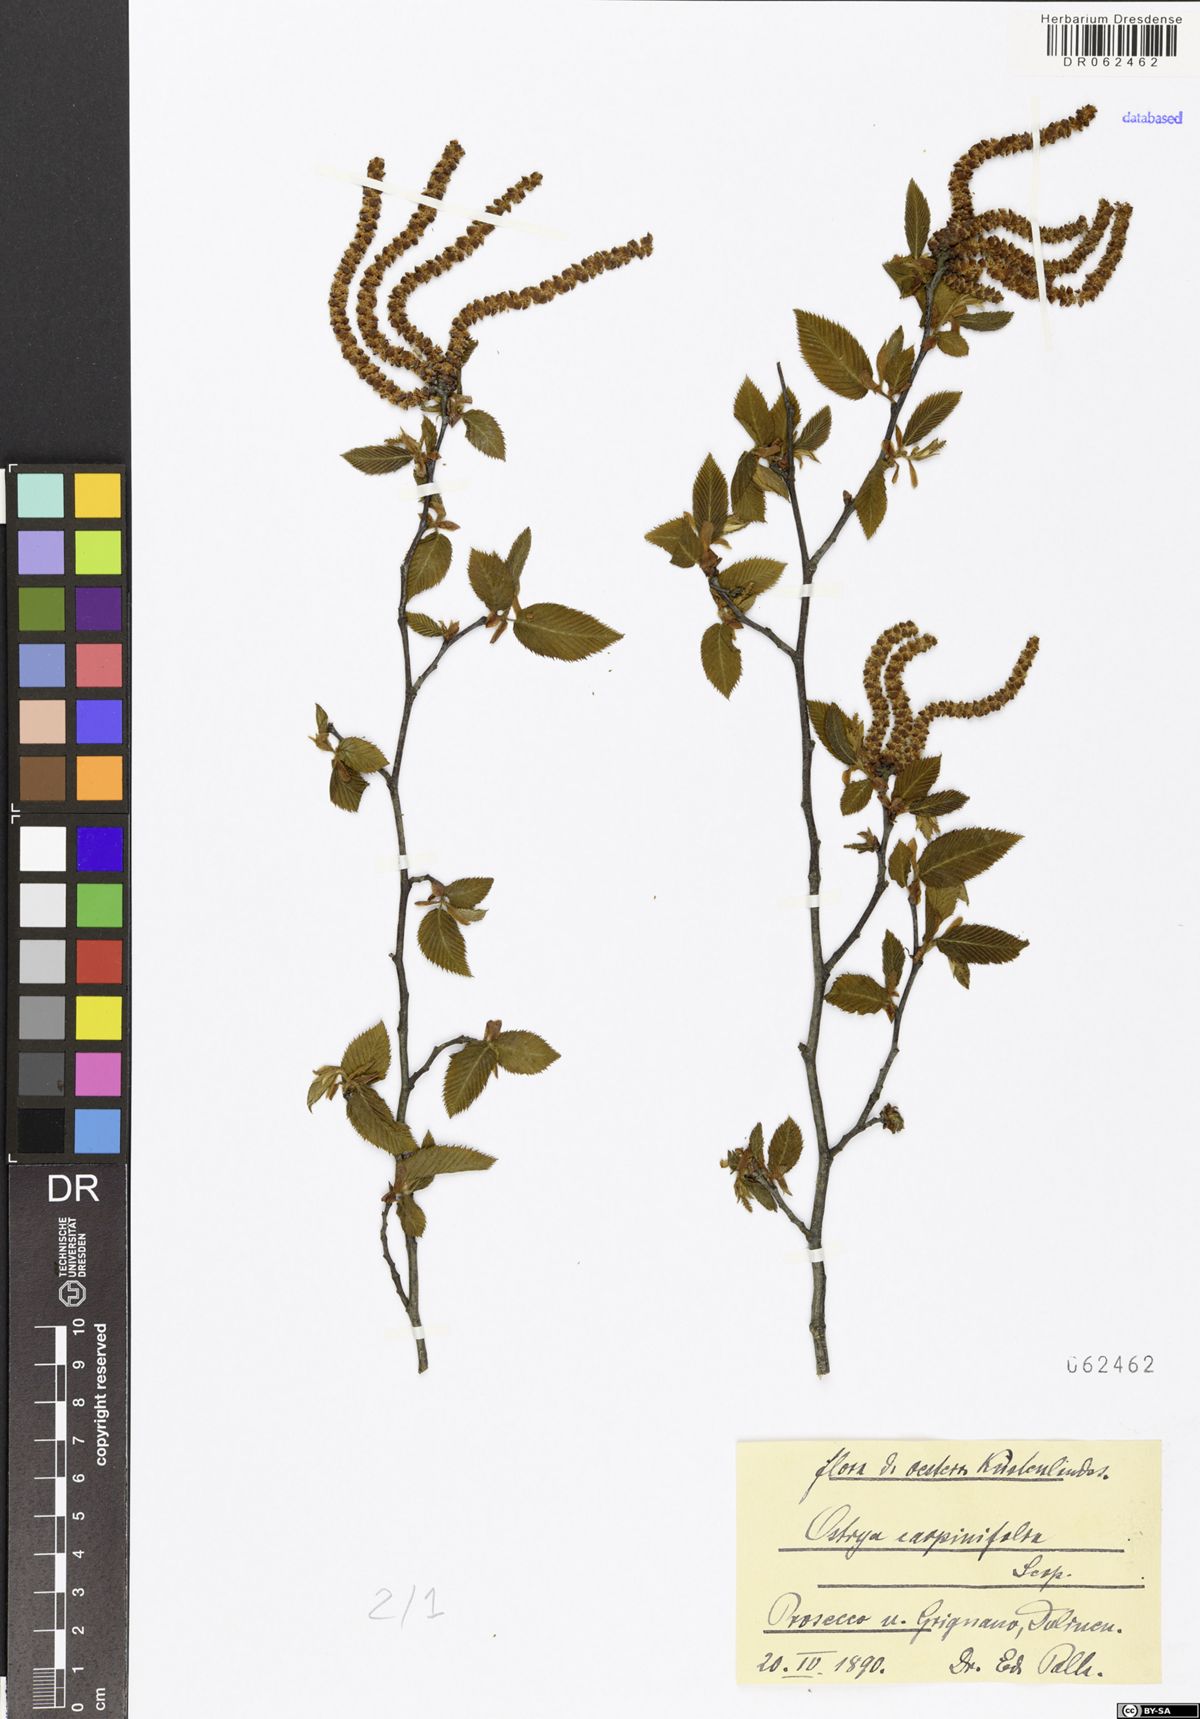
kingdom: Plantae
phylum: Tracheophyta
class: Magnoliopsida
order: Fagales
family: Betulaceae
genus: Ostrya
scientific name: Ostrya carpinifolia
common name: European hop-hornbeam
